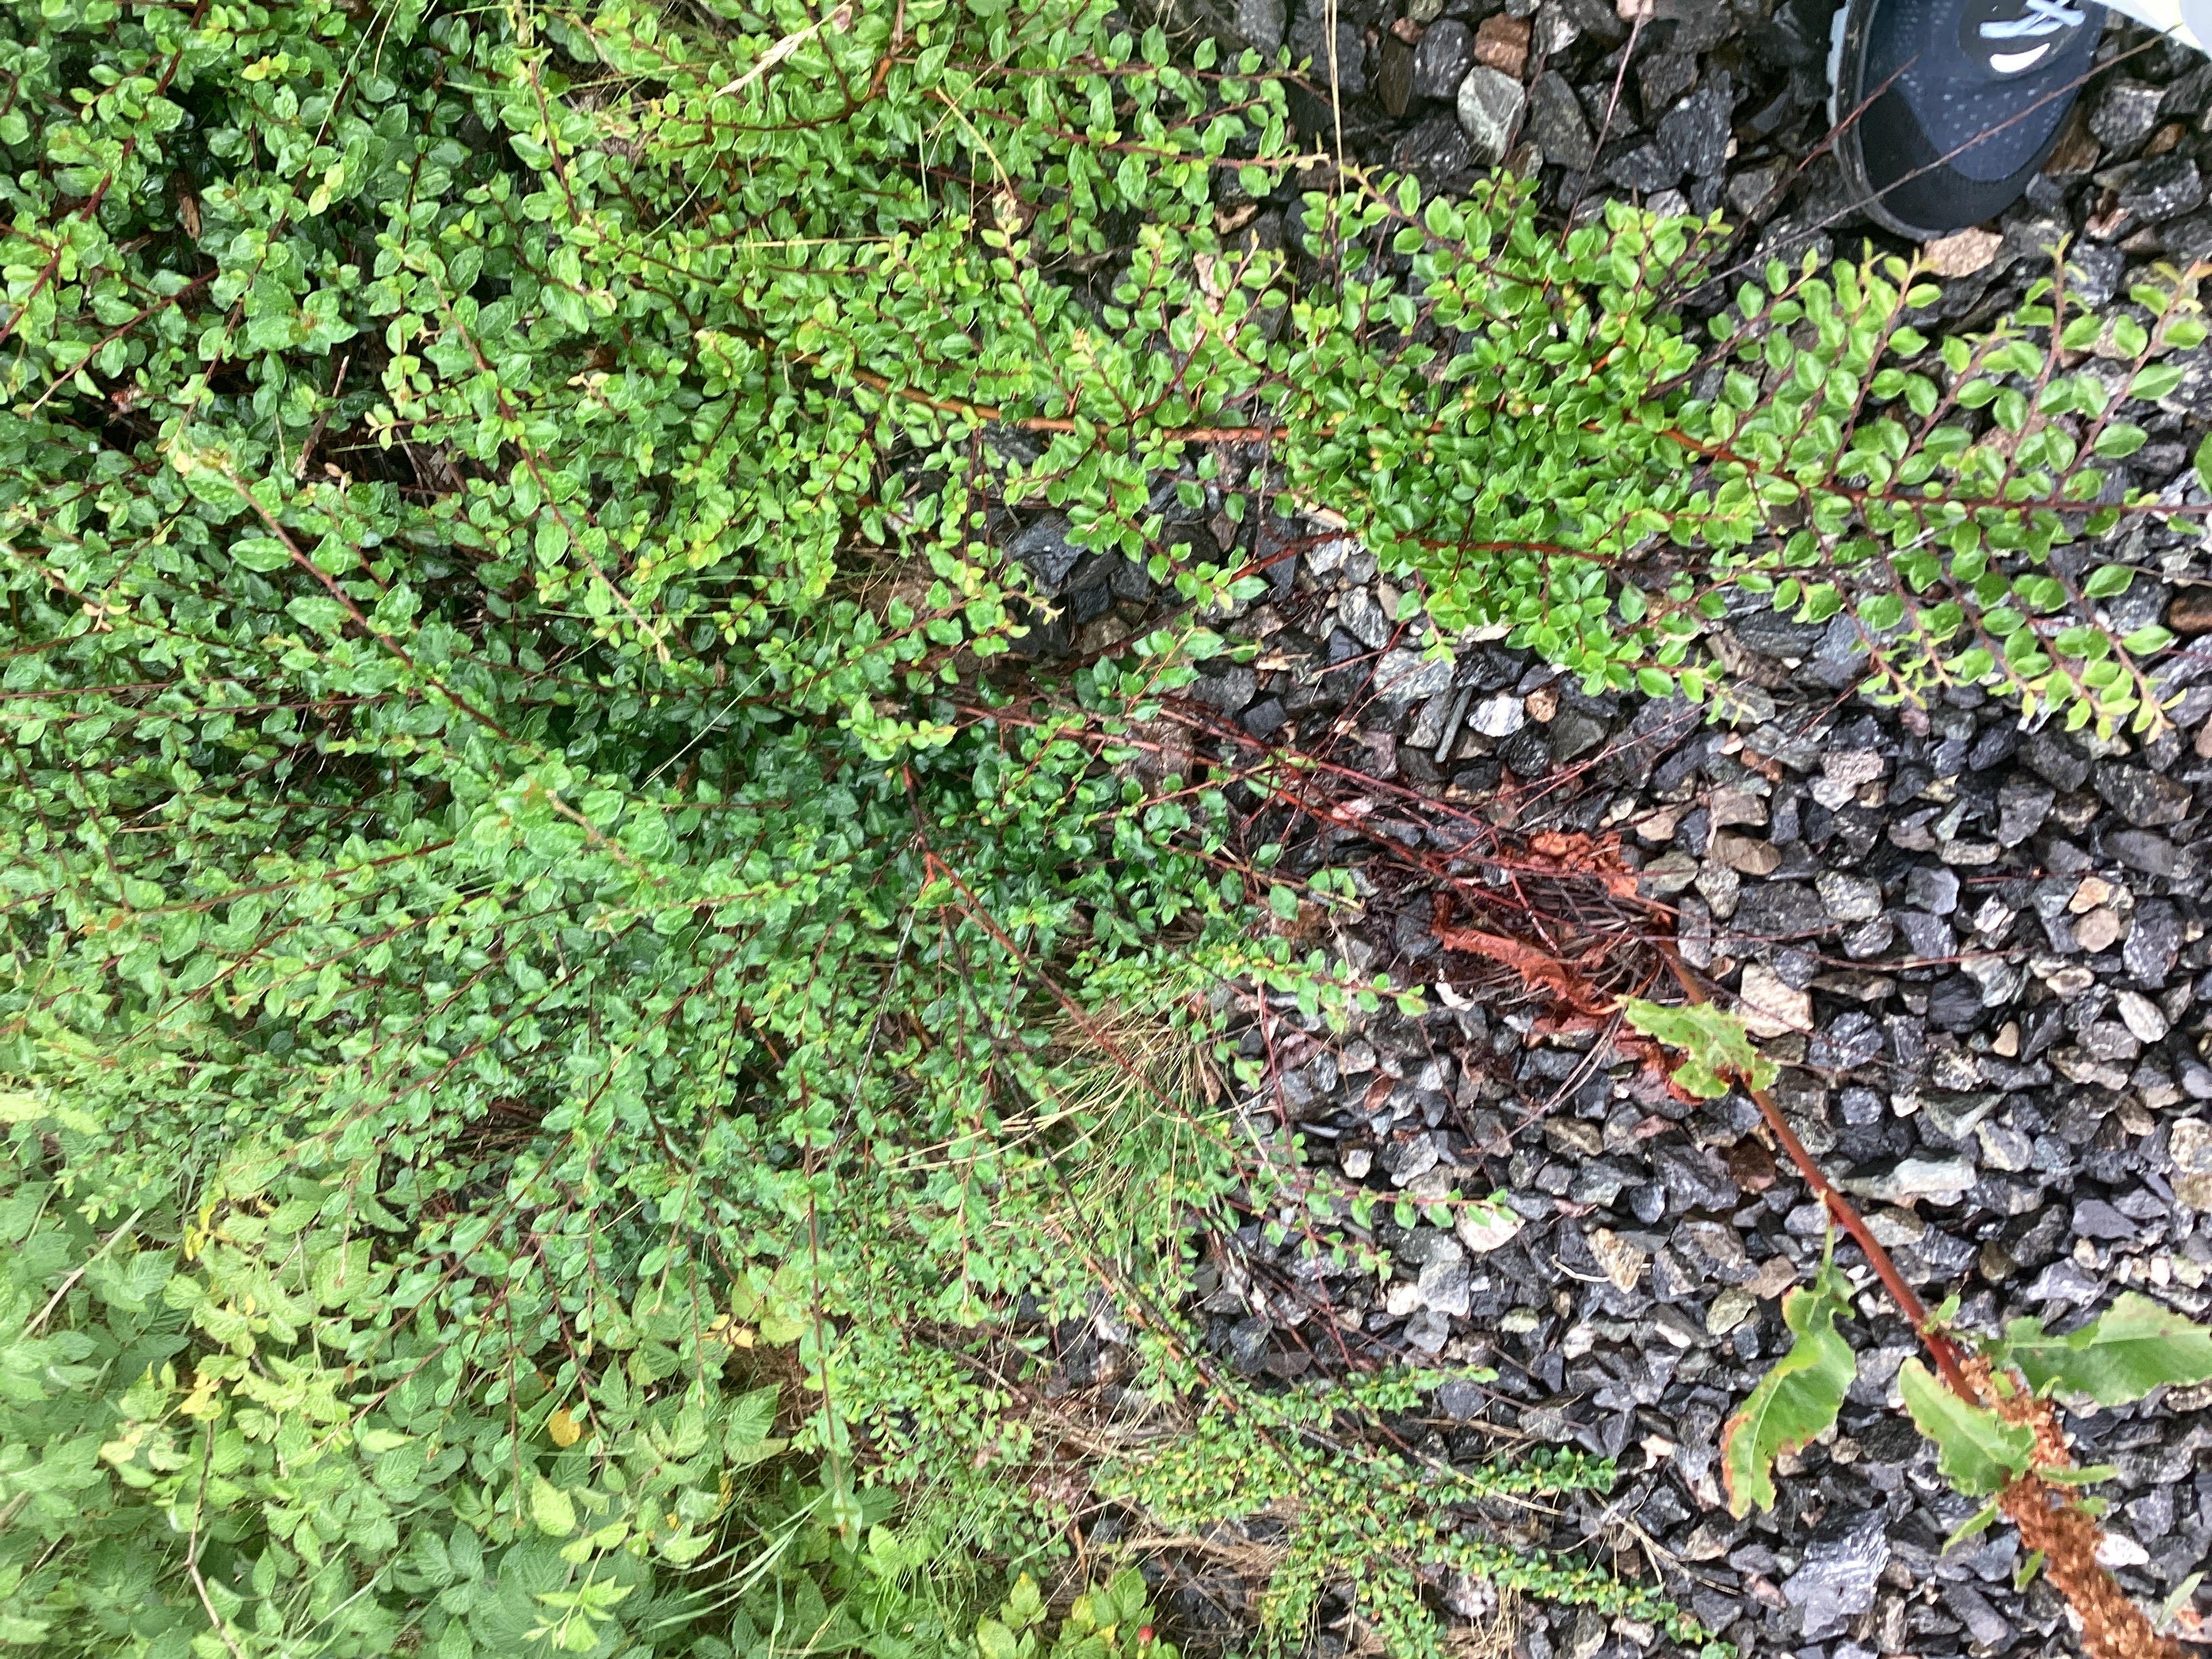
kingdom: Plantae
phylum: Tracheophyta
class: Magnoliopsida
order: Rosales
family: Rosaceae
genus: Cotoneaster
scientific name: Cotoneaster divaricatus
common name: sprikemispel
